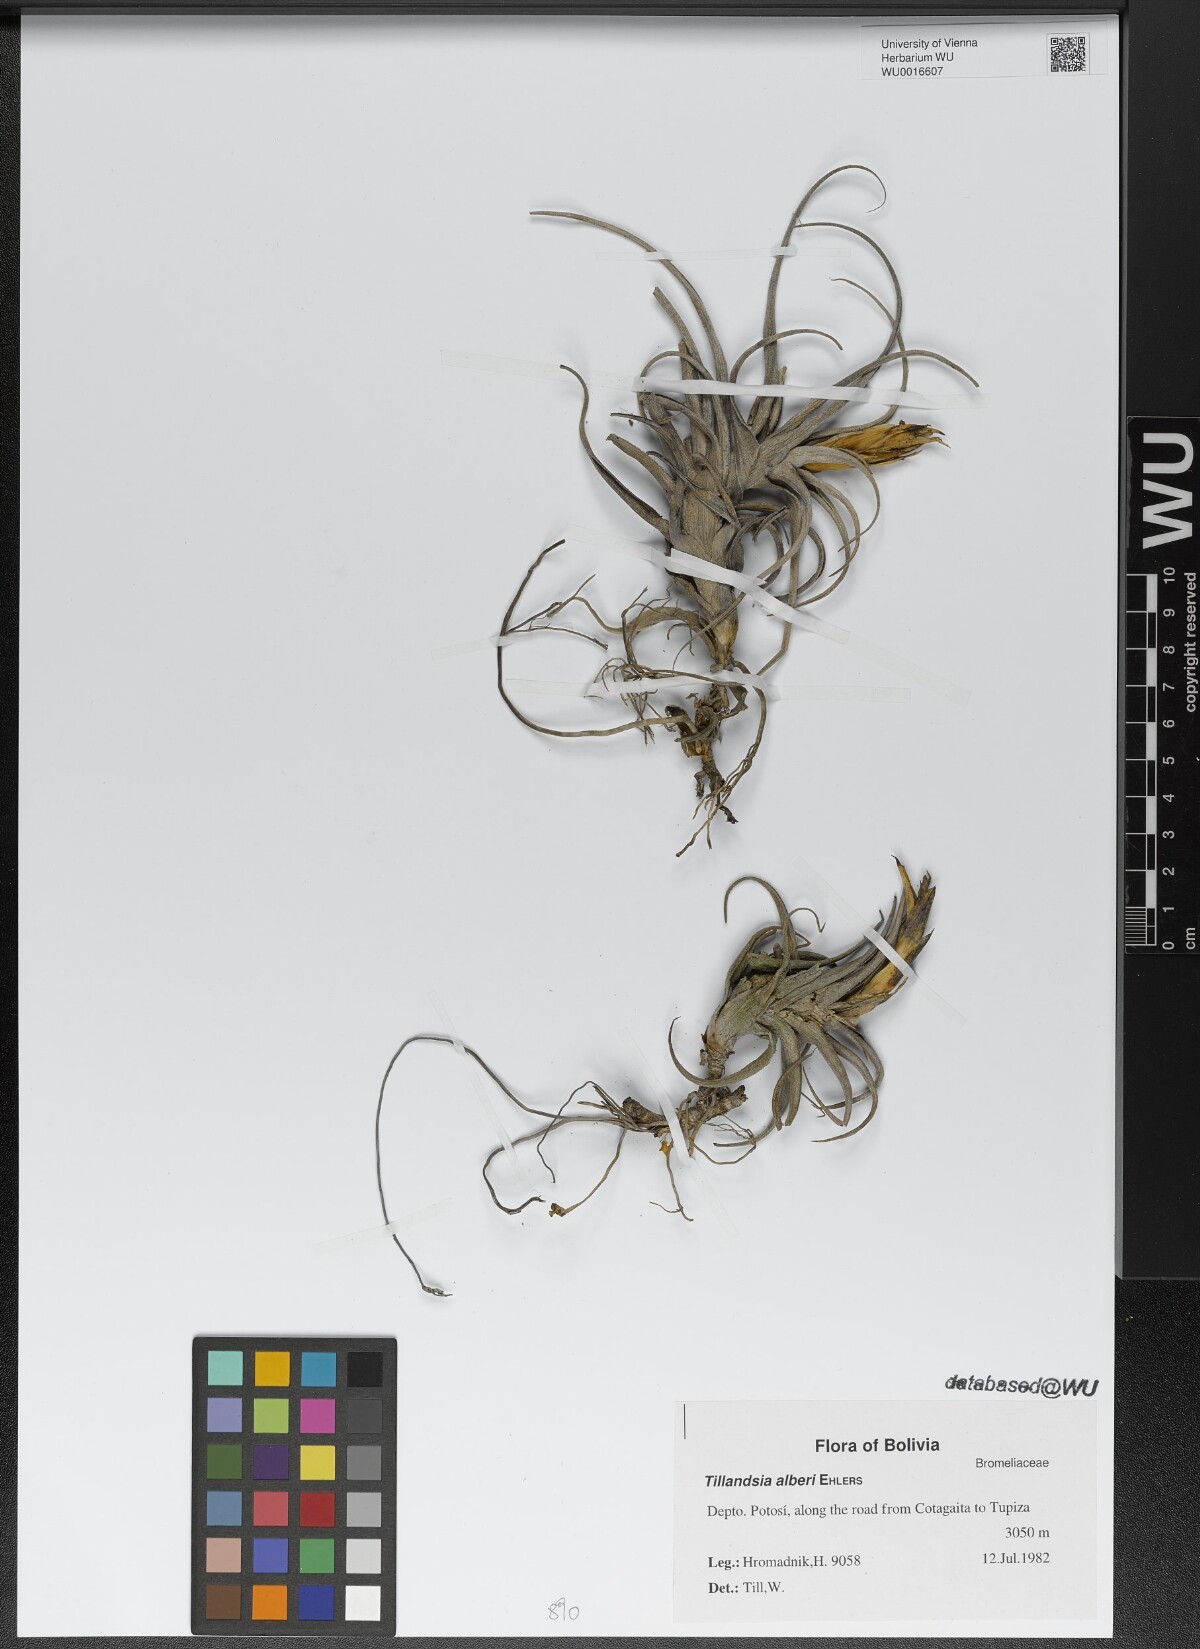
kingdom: Plantae
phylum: Tracheophyta
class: Liliopsida
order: Poales
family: Bromeliaceae
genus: Tillandsia
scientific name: Tillandsia muhriae
